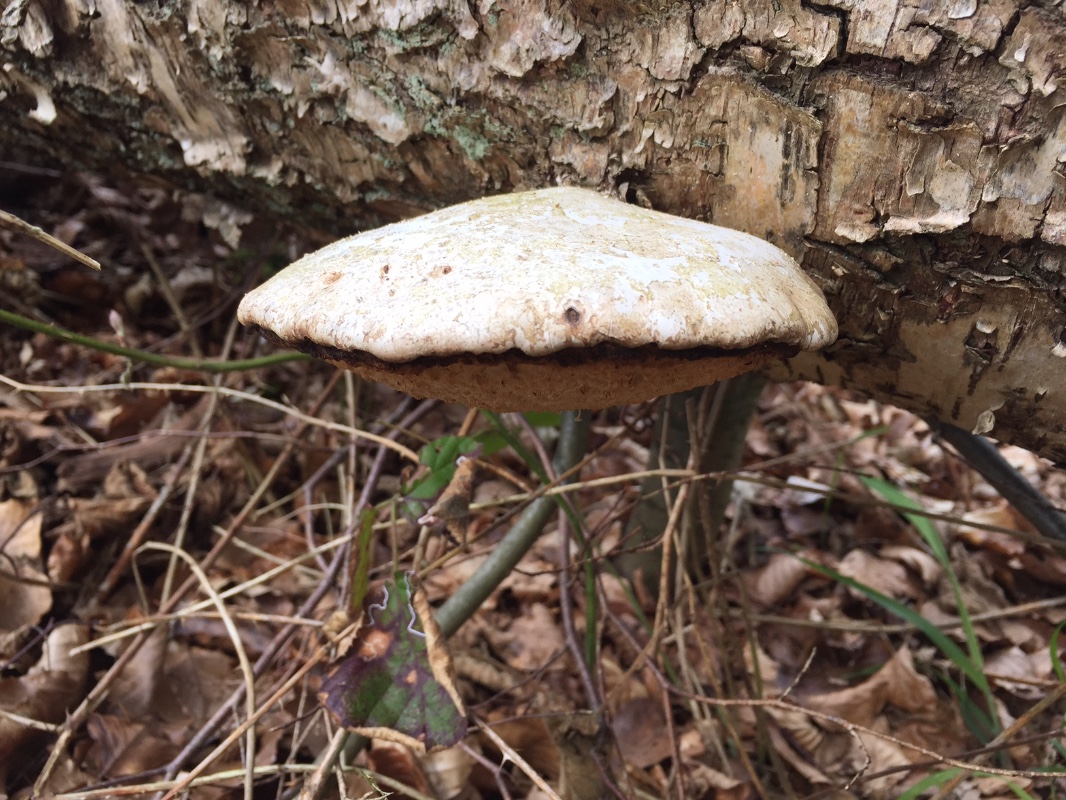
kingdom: Fungi
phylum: Basidiomycota
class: Agaricomycetes
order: Polyporales
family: Fomitopsidaceae
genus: Fomitopsis
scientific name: Fomitopsis betulina
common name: birkeporesvamp
